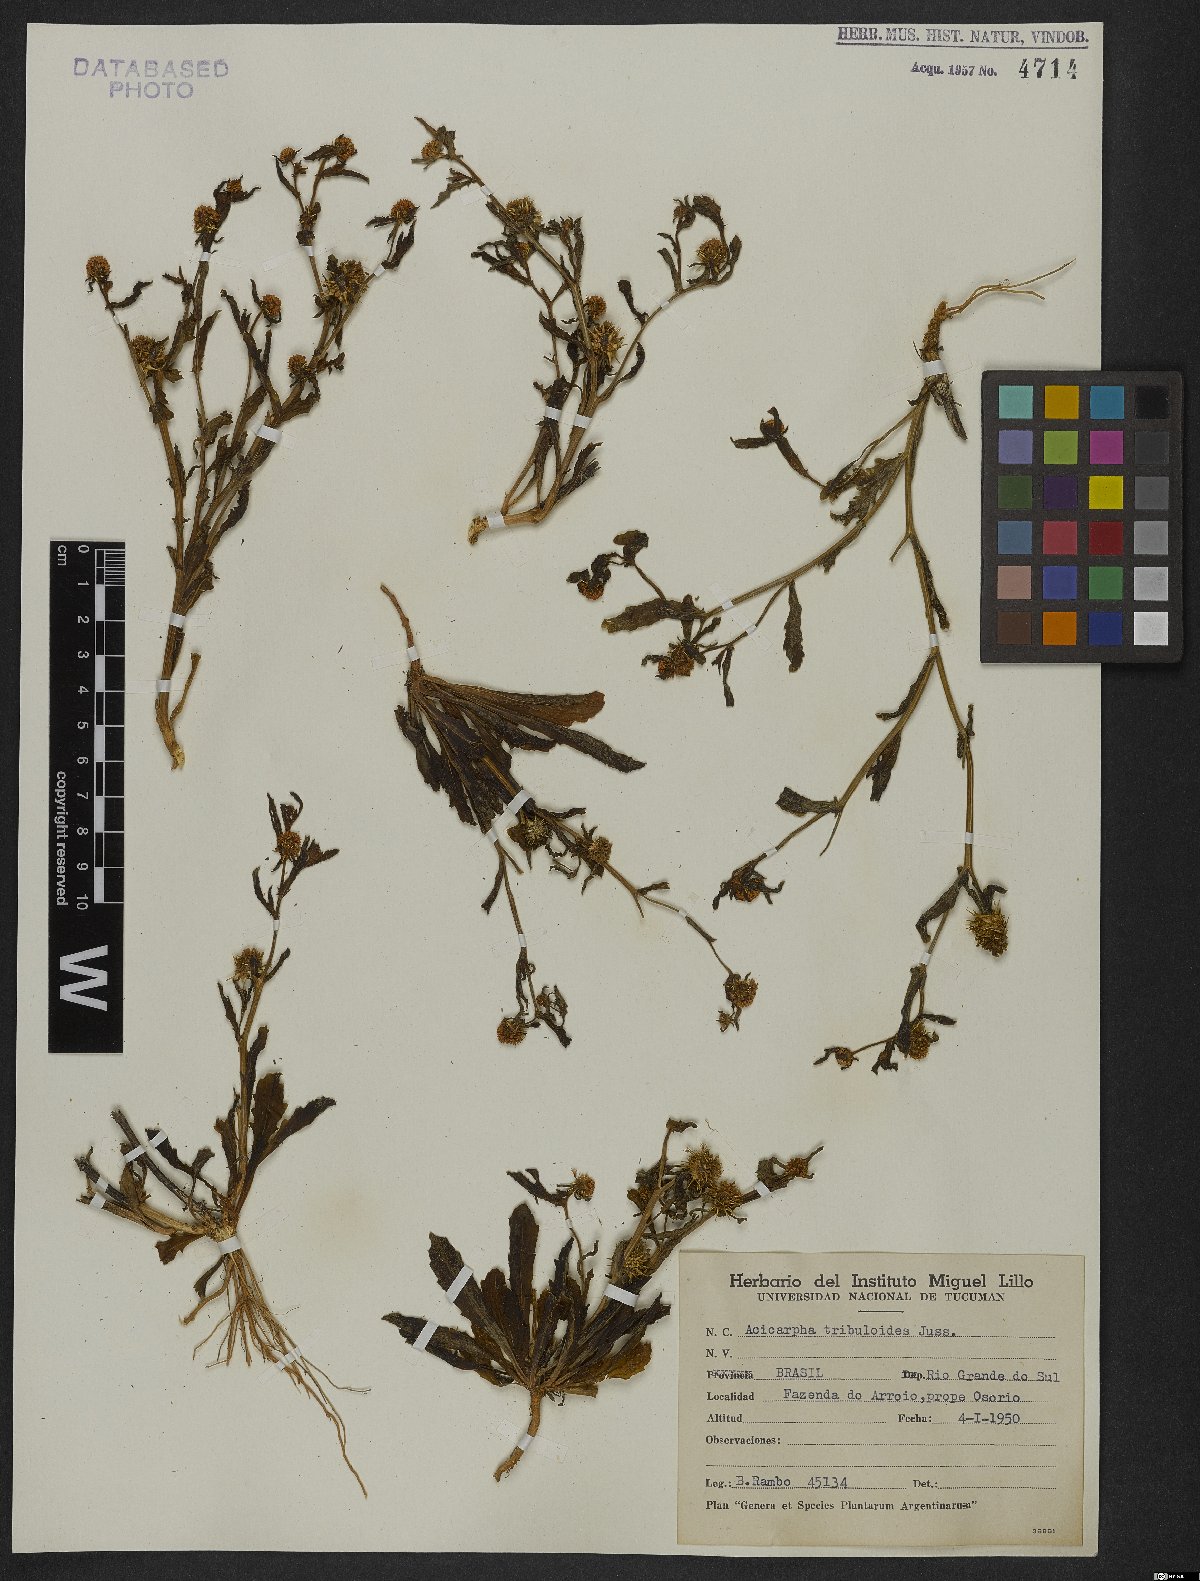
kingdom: Plantae
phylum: Tracheophyta
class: Magnoliopsida
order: Asterales
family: Calyceraceae
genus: Acicarpha
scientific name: Acicarpha tribuloides
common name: Madam gorgon
